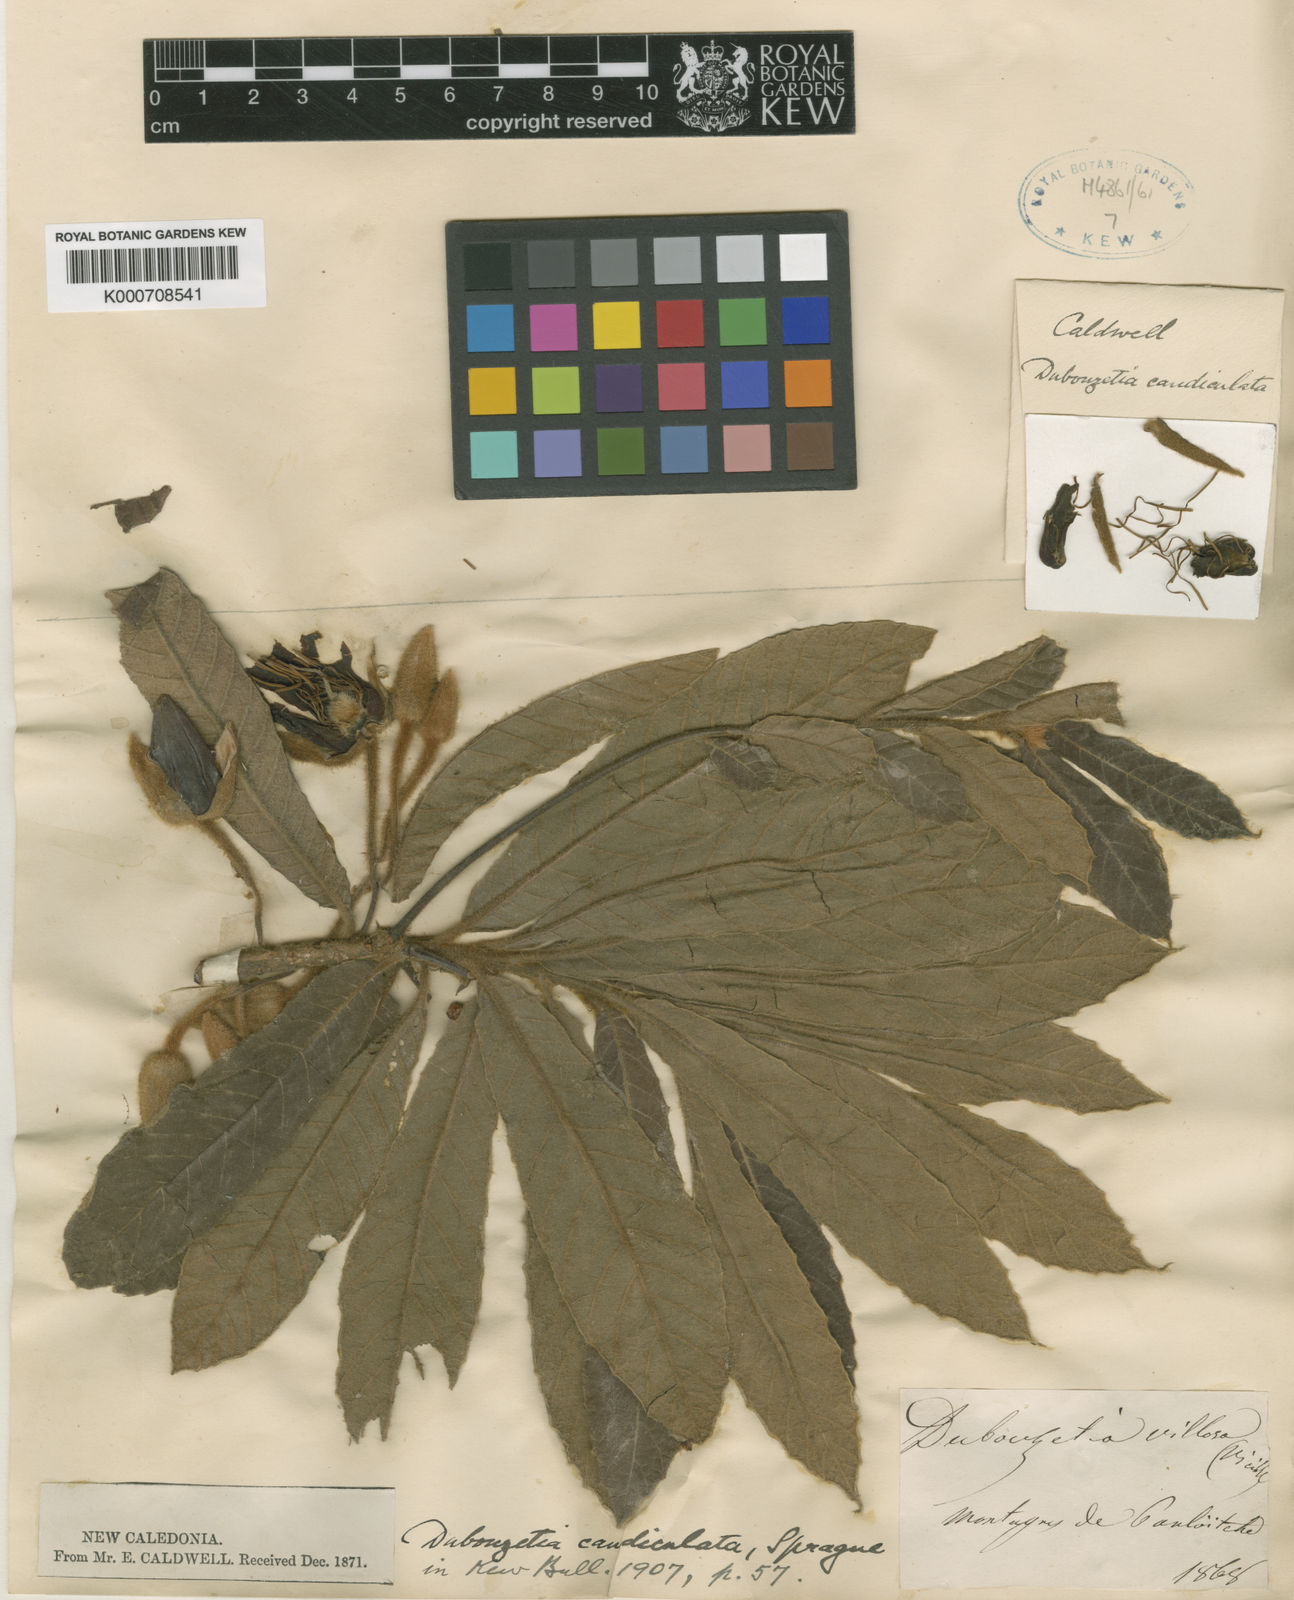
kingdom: Plantae
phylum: Tracheophyta
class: Magnoliopsida
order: Oxalidales
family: Elaeocarpaceae
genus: Dubouzetia
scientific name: Dubouzetia caudiculata
